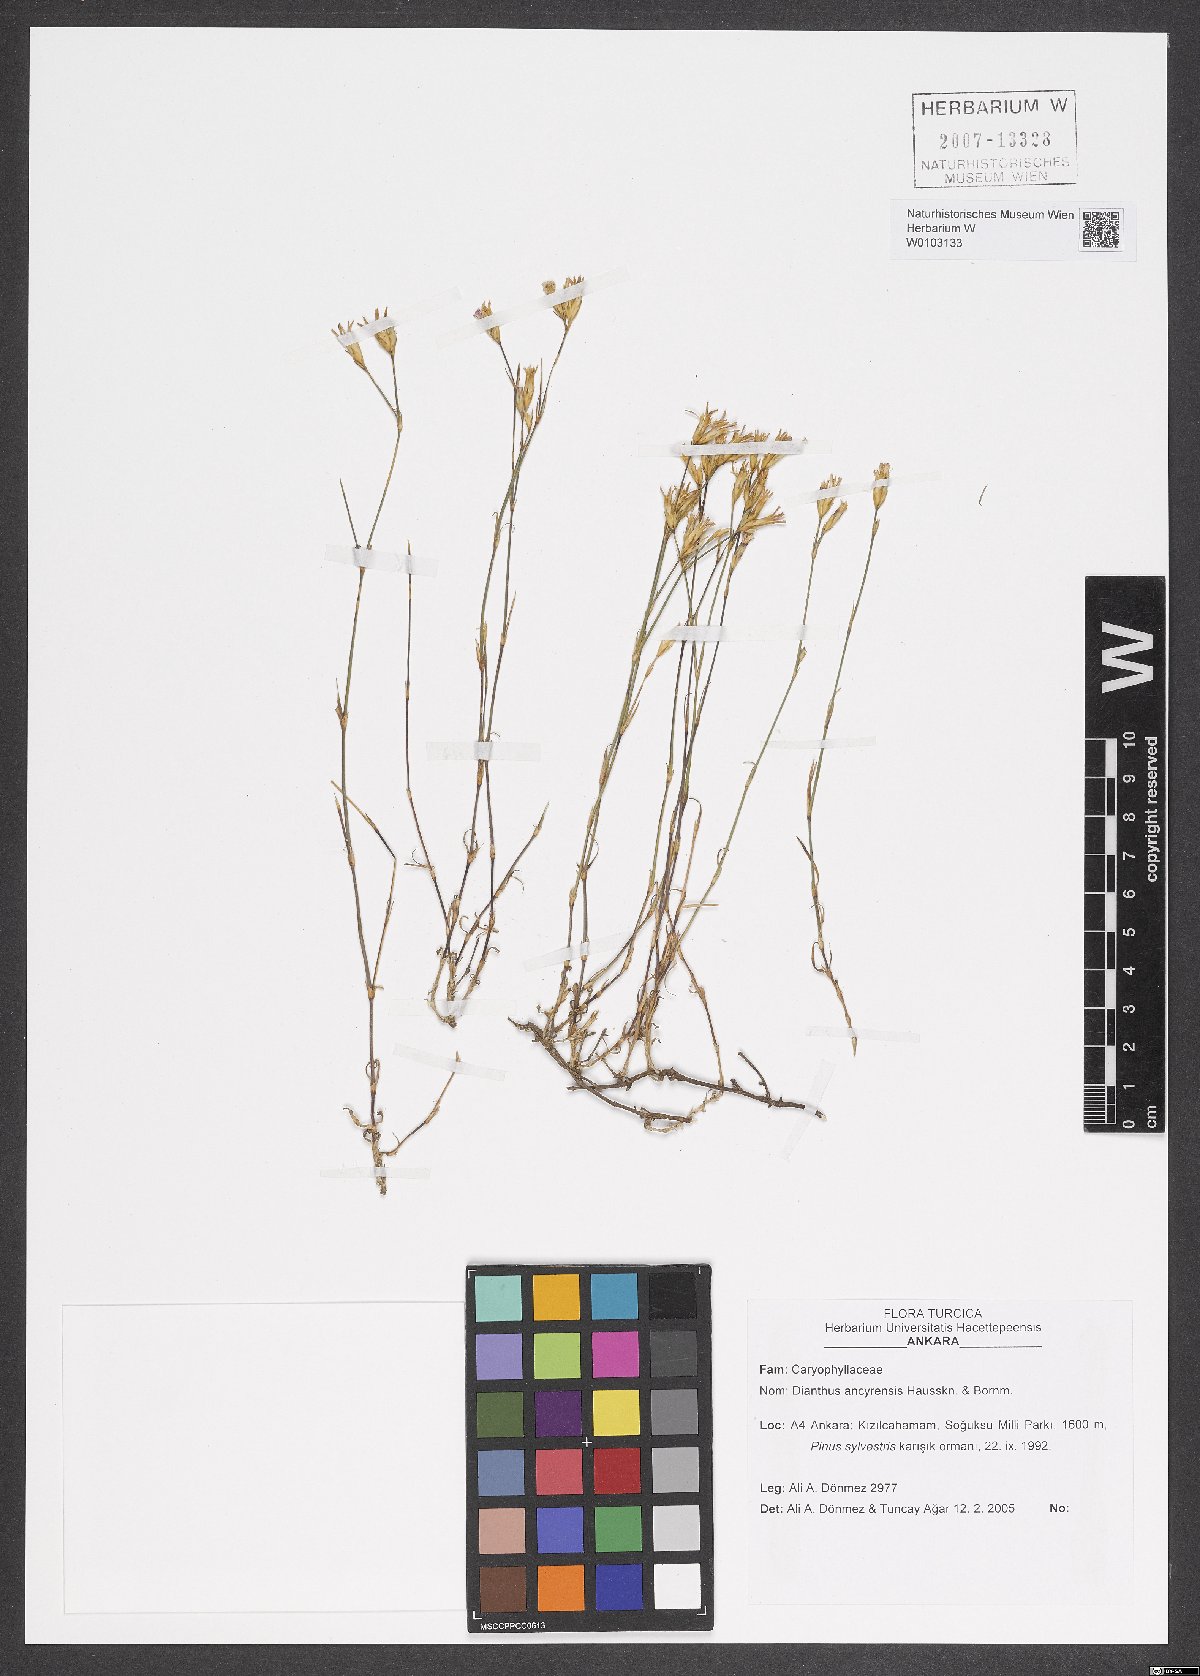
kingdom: Plantae
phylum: Tracheophyta
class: Magnoliopsida
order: Caryophyllales
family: Caryophyllaceae
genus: Dianthus
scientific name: Dianthus ancyrensis
